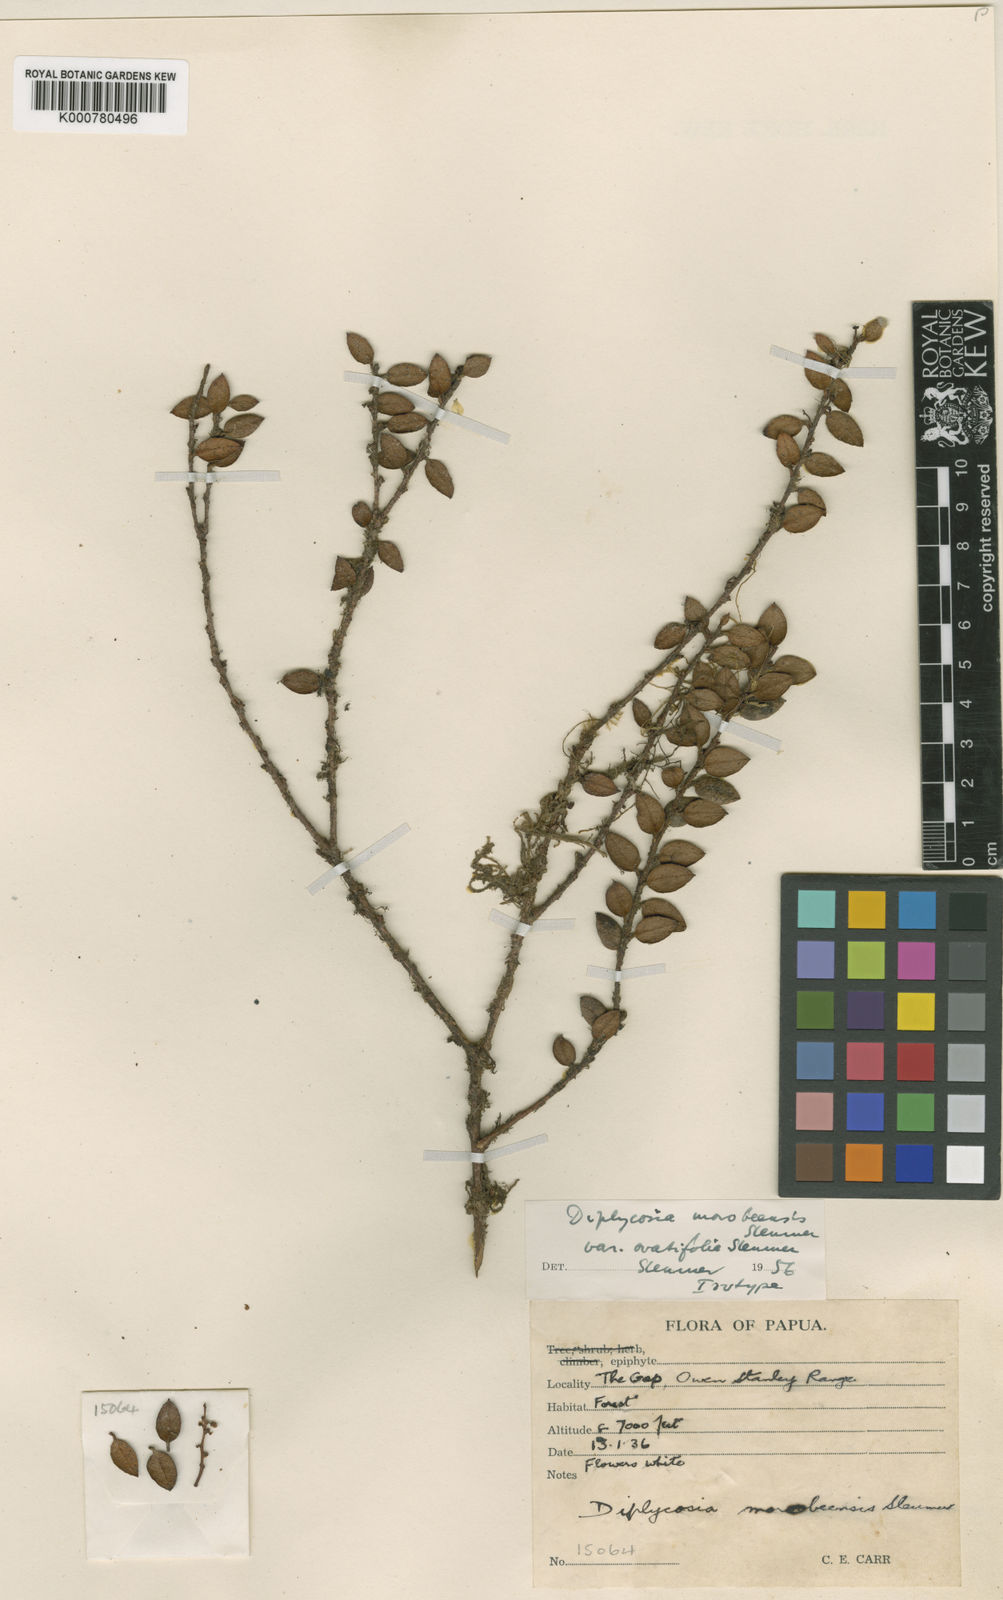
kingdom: Plantae
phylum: Tracheophyta
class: Magnoliopsida
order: Ericales
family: Ericaceae
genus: Gaultheria
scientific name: Gaultheria morobeensis
